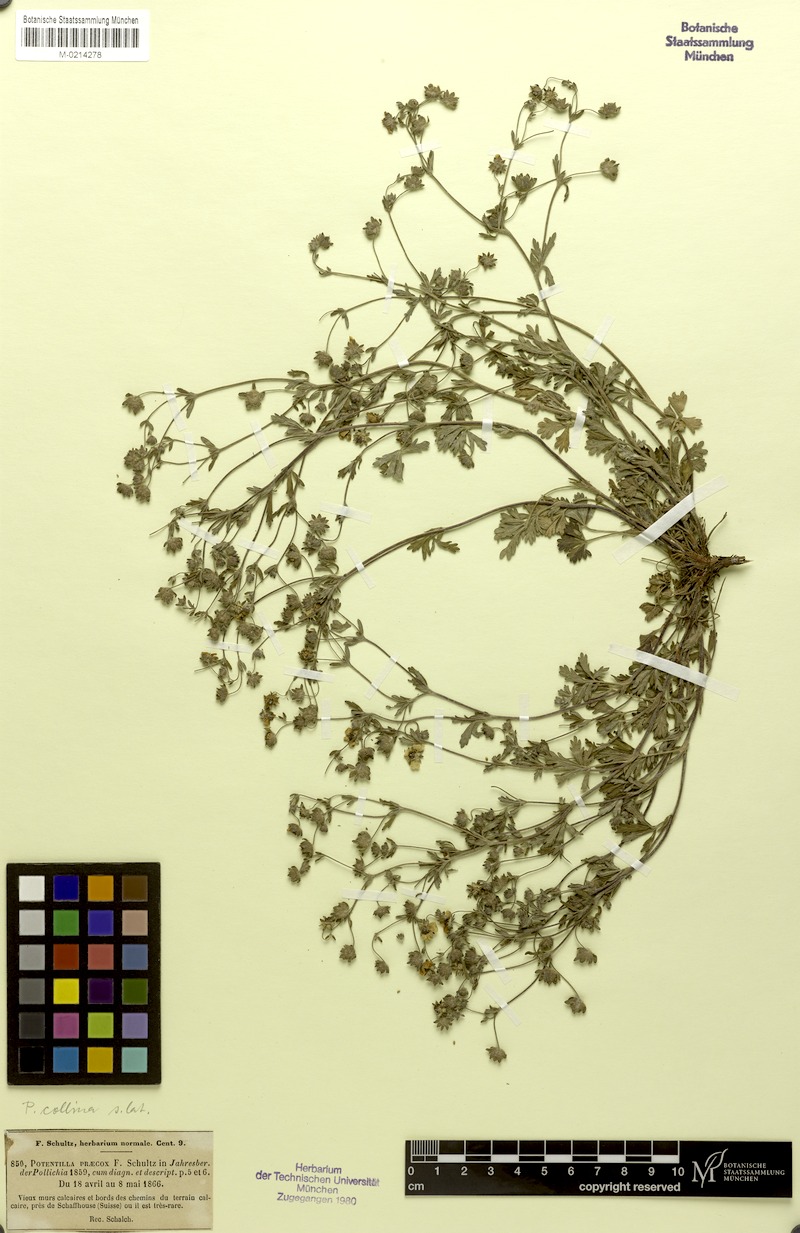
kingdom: Plantae
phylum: Tracheophyta
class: Magnoliopsida
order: Rosales
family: Rosaceae
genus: Potentilla
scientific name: Potentilla collina
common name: Palmleaf cinquefoil
